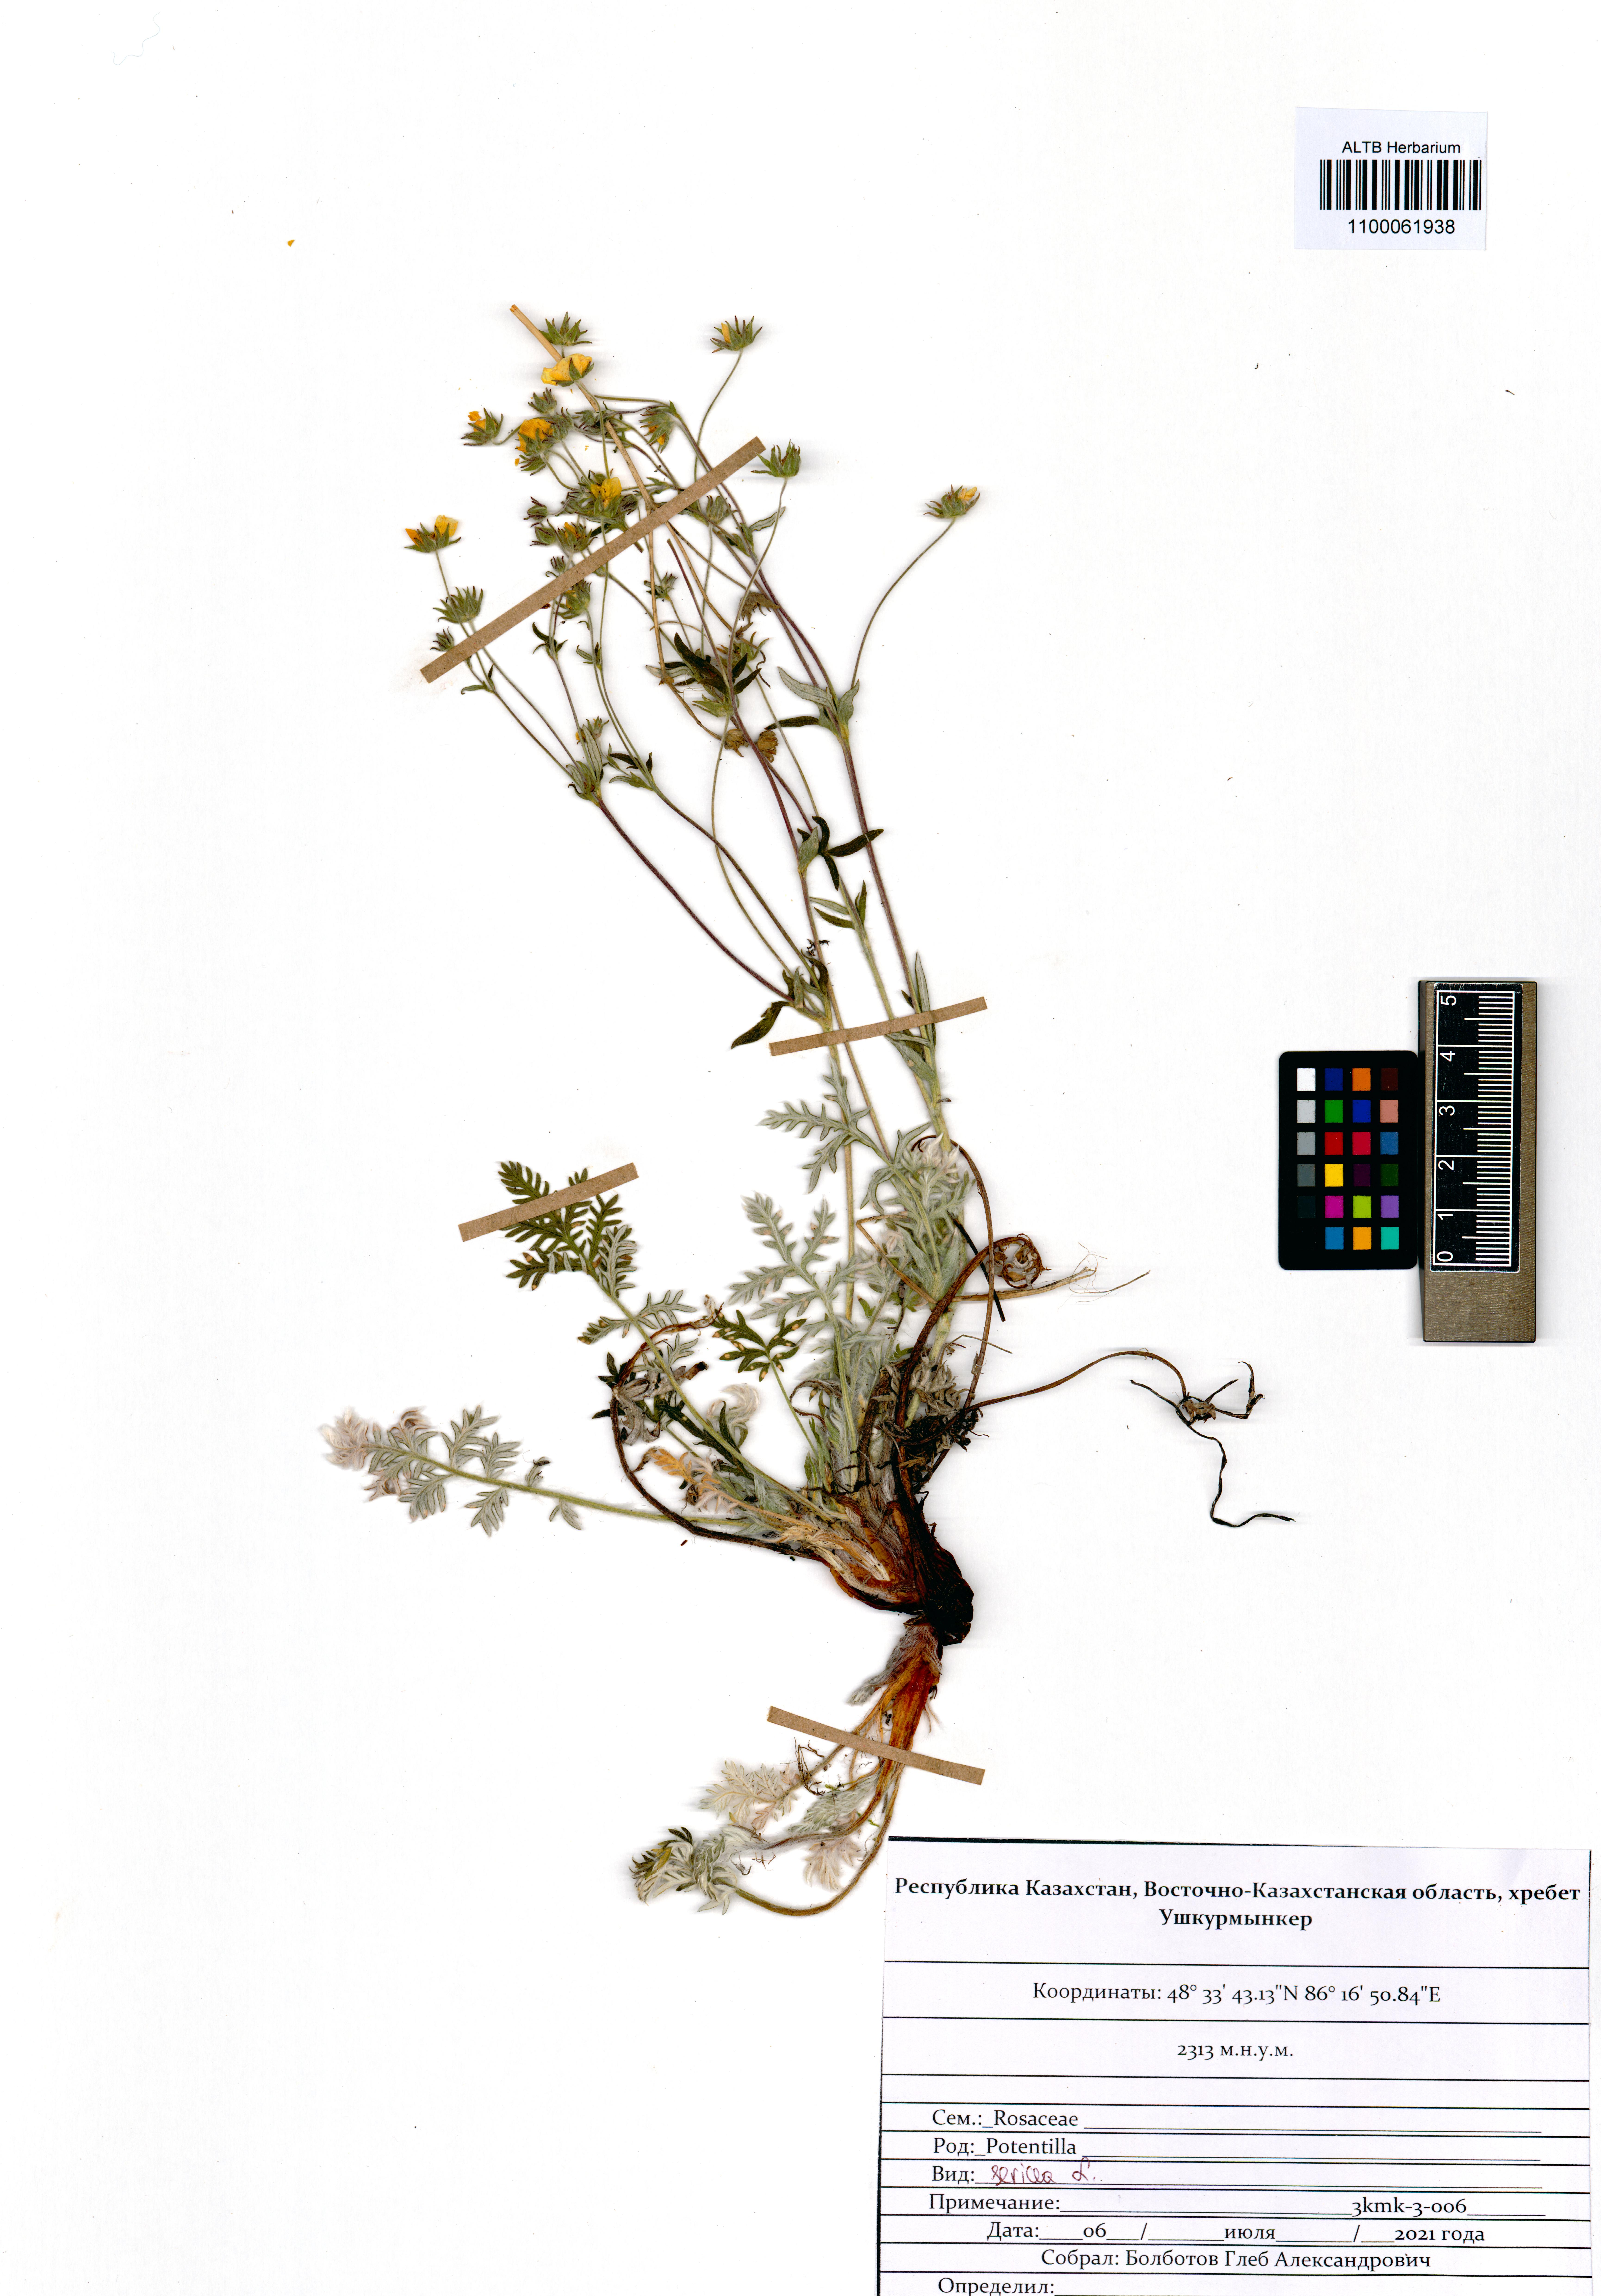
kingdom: Plantae
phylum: Tracheophyta
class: Magnoliopsida
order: Rosales
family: Rosaceae
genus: Potentilla
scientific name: Potentilla sericea
